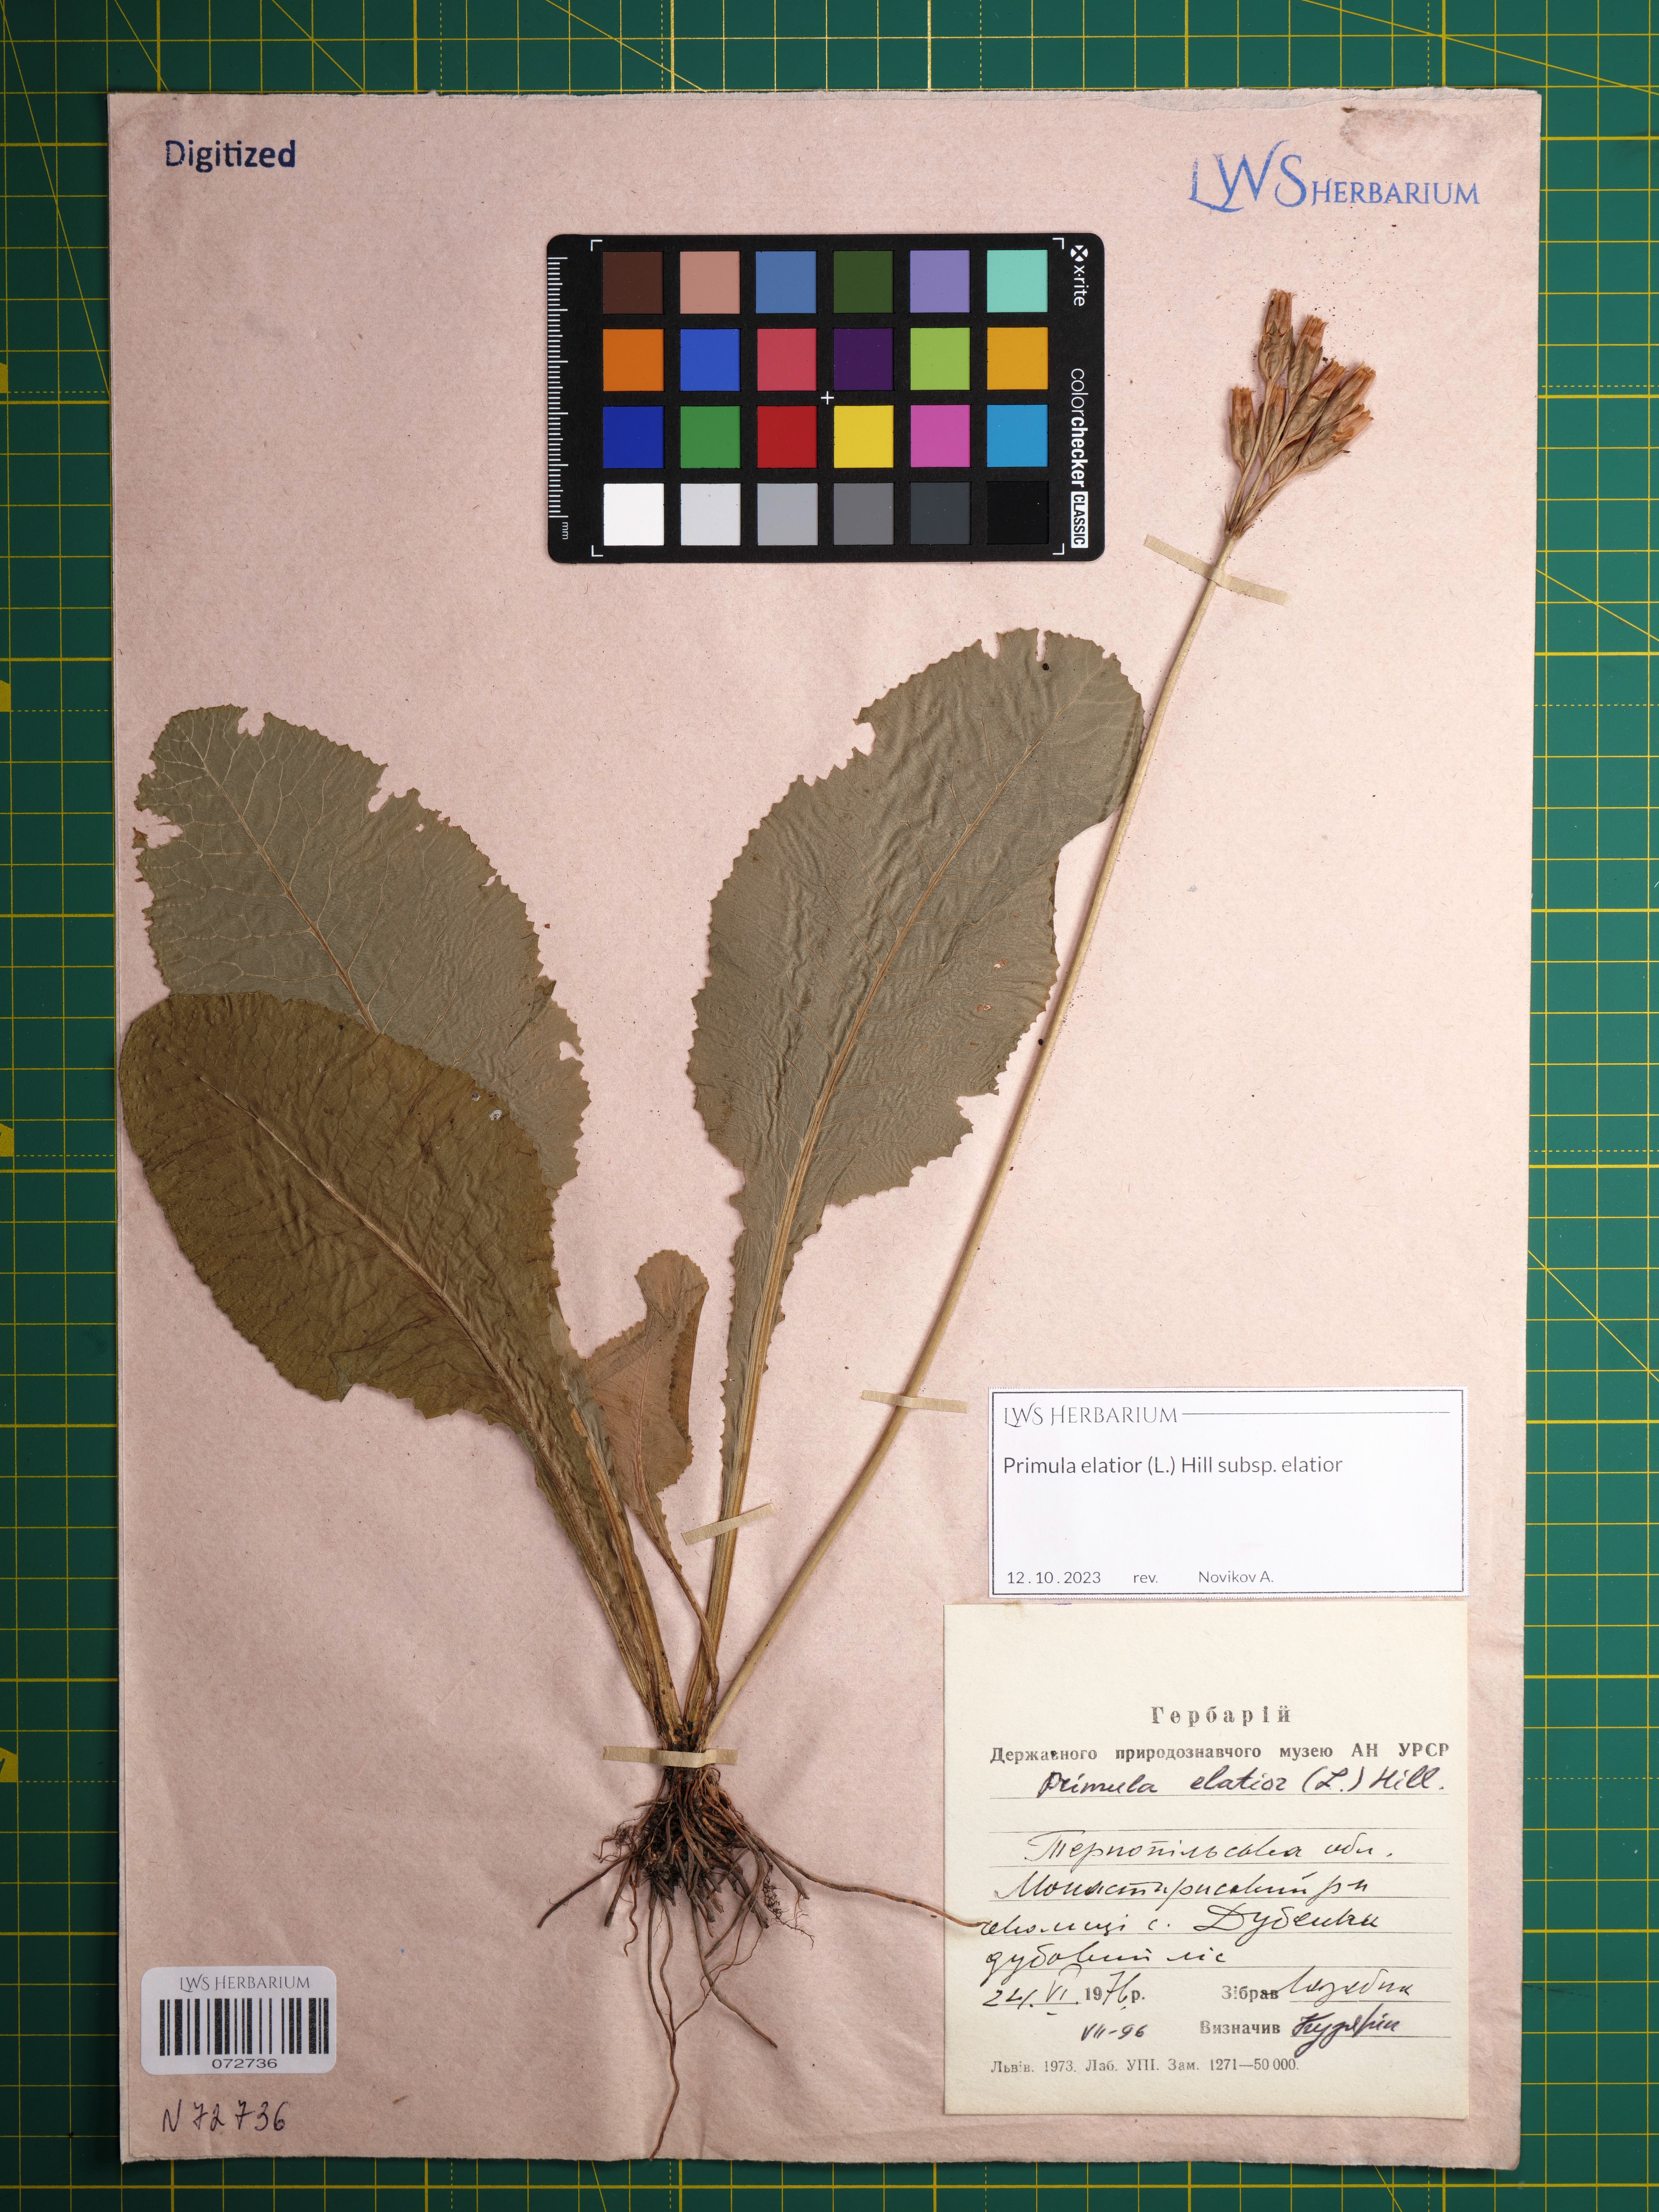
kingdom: Plantae
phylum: Tracheophyta
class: Magnoliopsida
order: Ericales
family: Primulaceae
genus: Primula
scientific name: Primula elatior
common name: Oxlip
